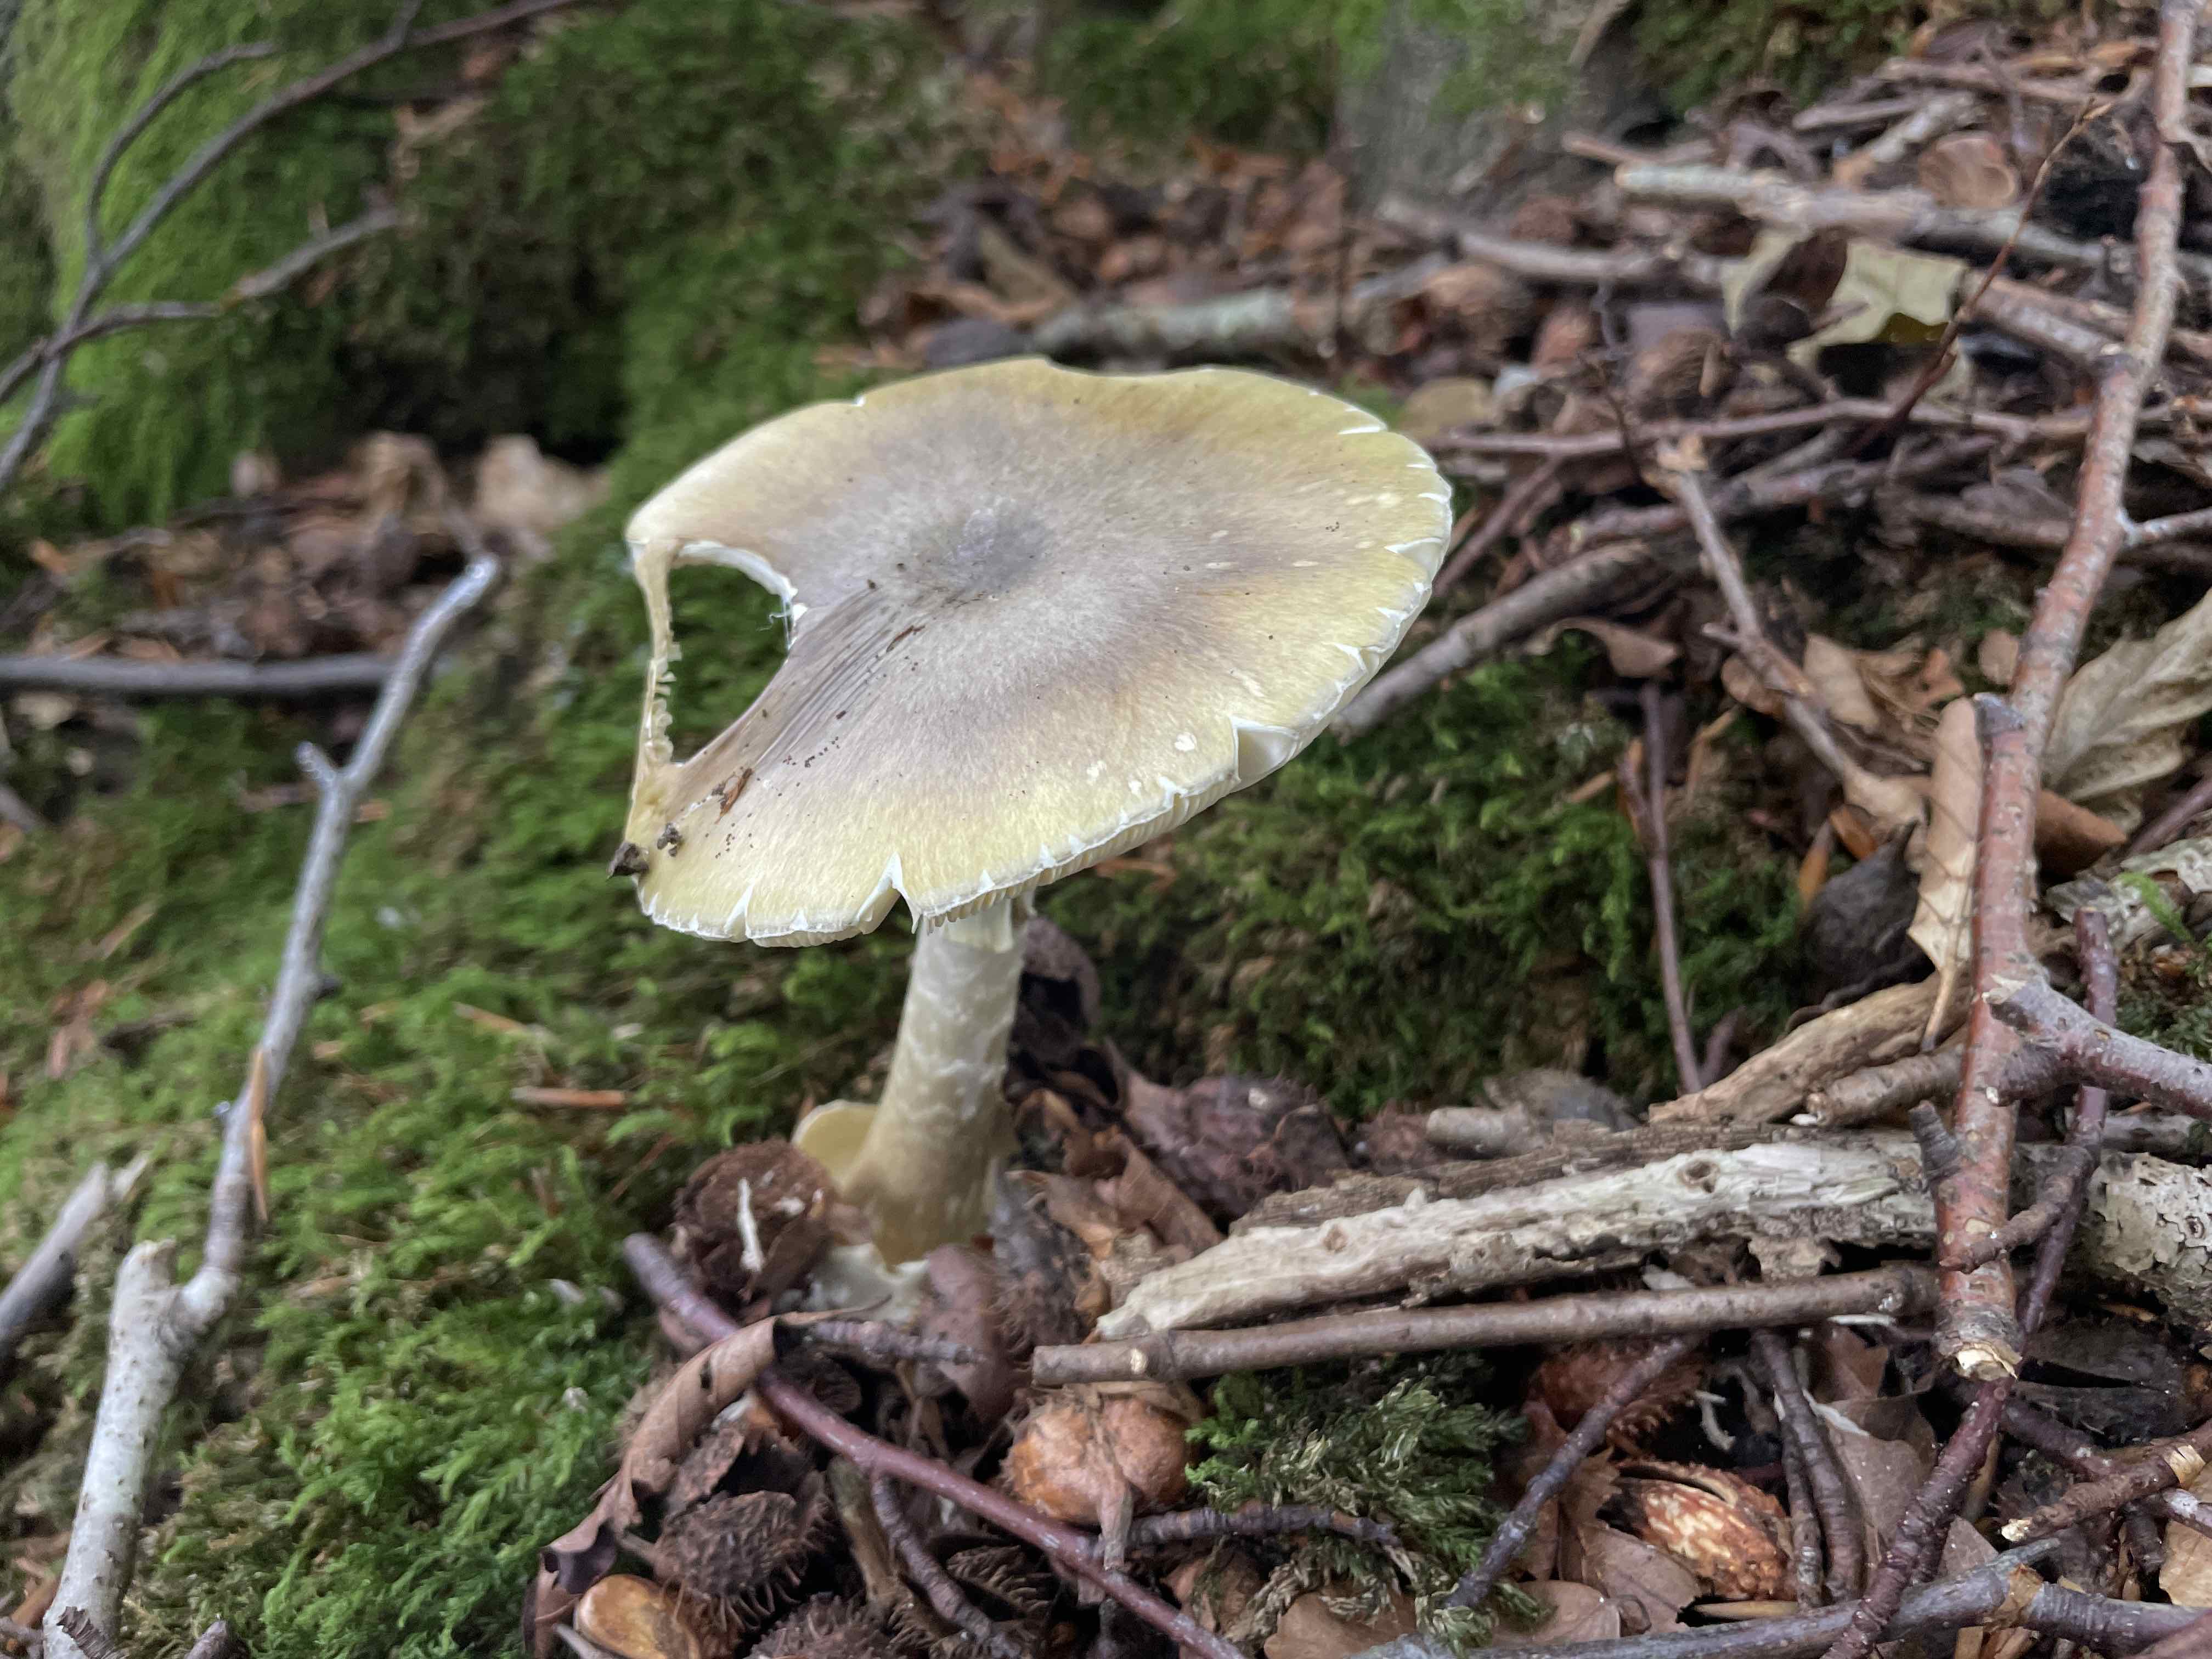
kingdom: Fungi
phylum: Basidiomycota
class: Agaricomycetes
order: Agaricales
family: Amanitaceae
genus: Amanita
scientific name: Amanita phalloides
